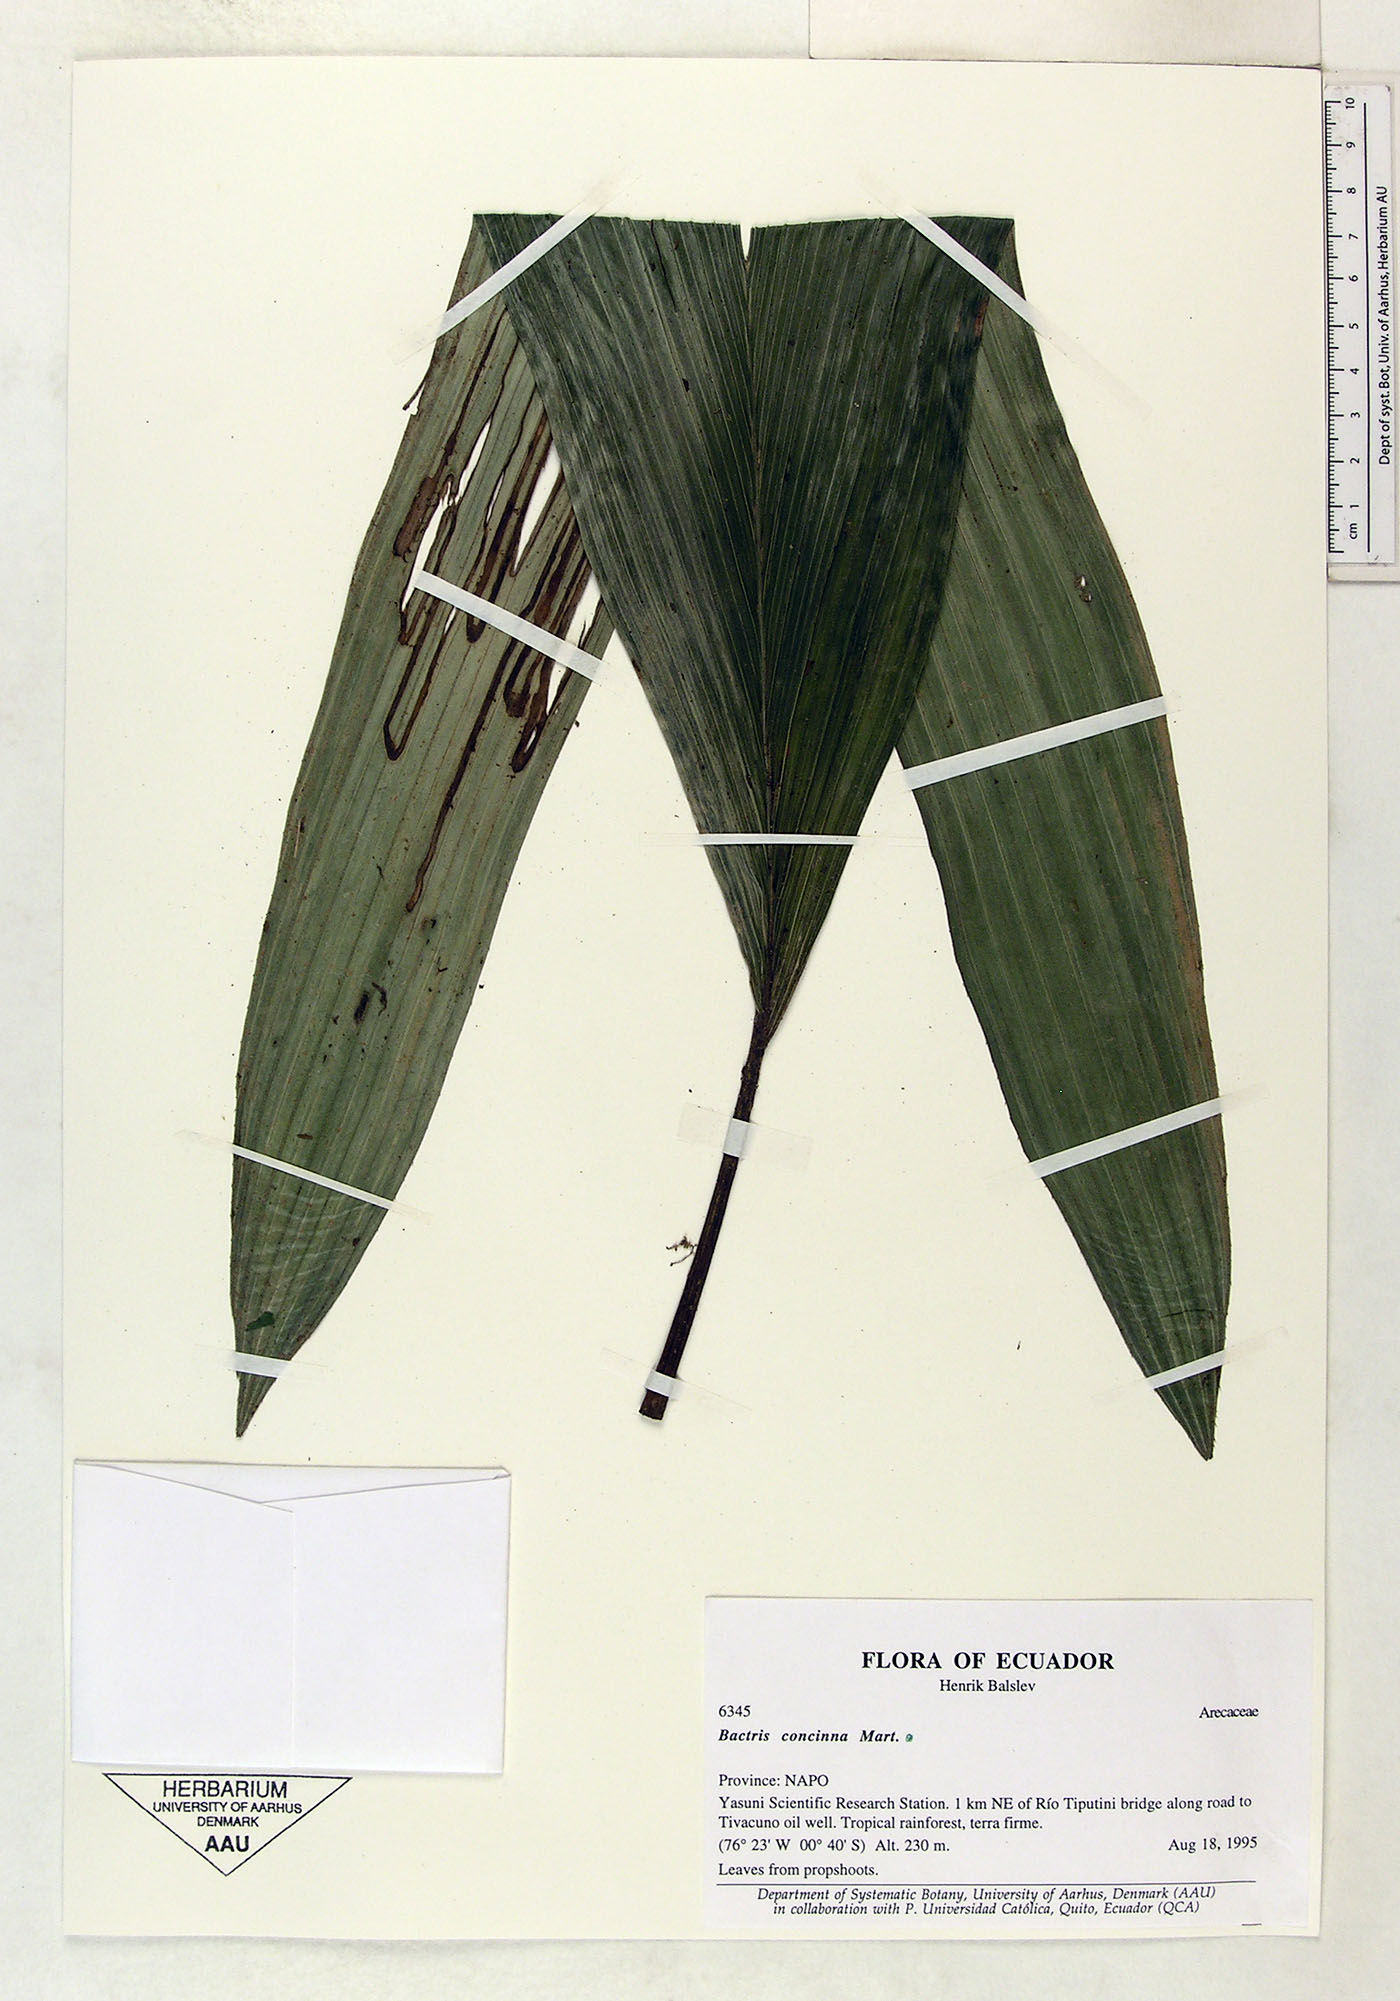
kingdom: Plantae
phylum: Tracheophyta
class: Liliopsida
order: Arecales
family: Arecaceae
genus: Bactris
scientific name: Bactris concinna
